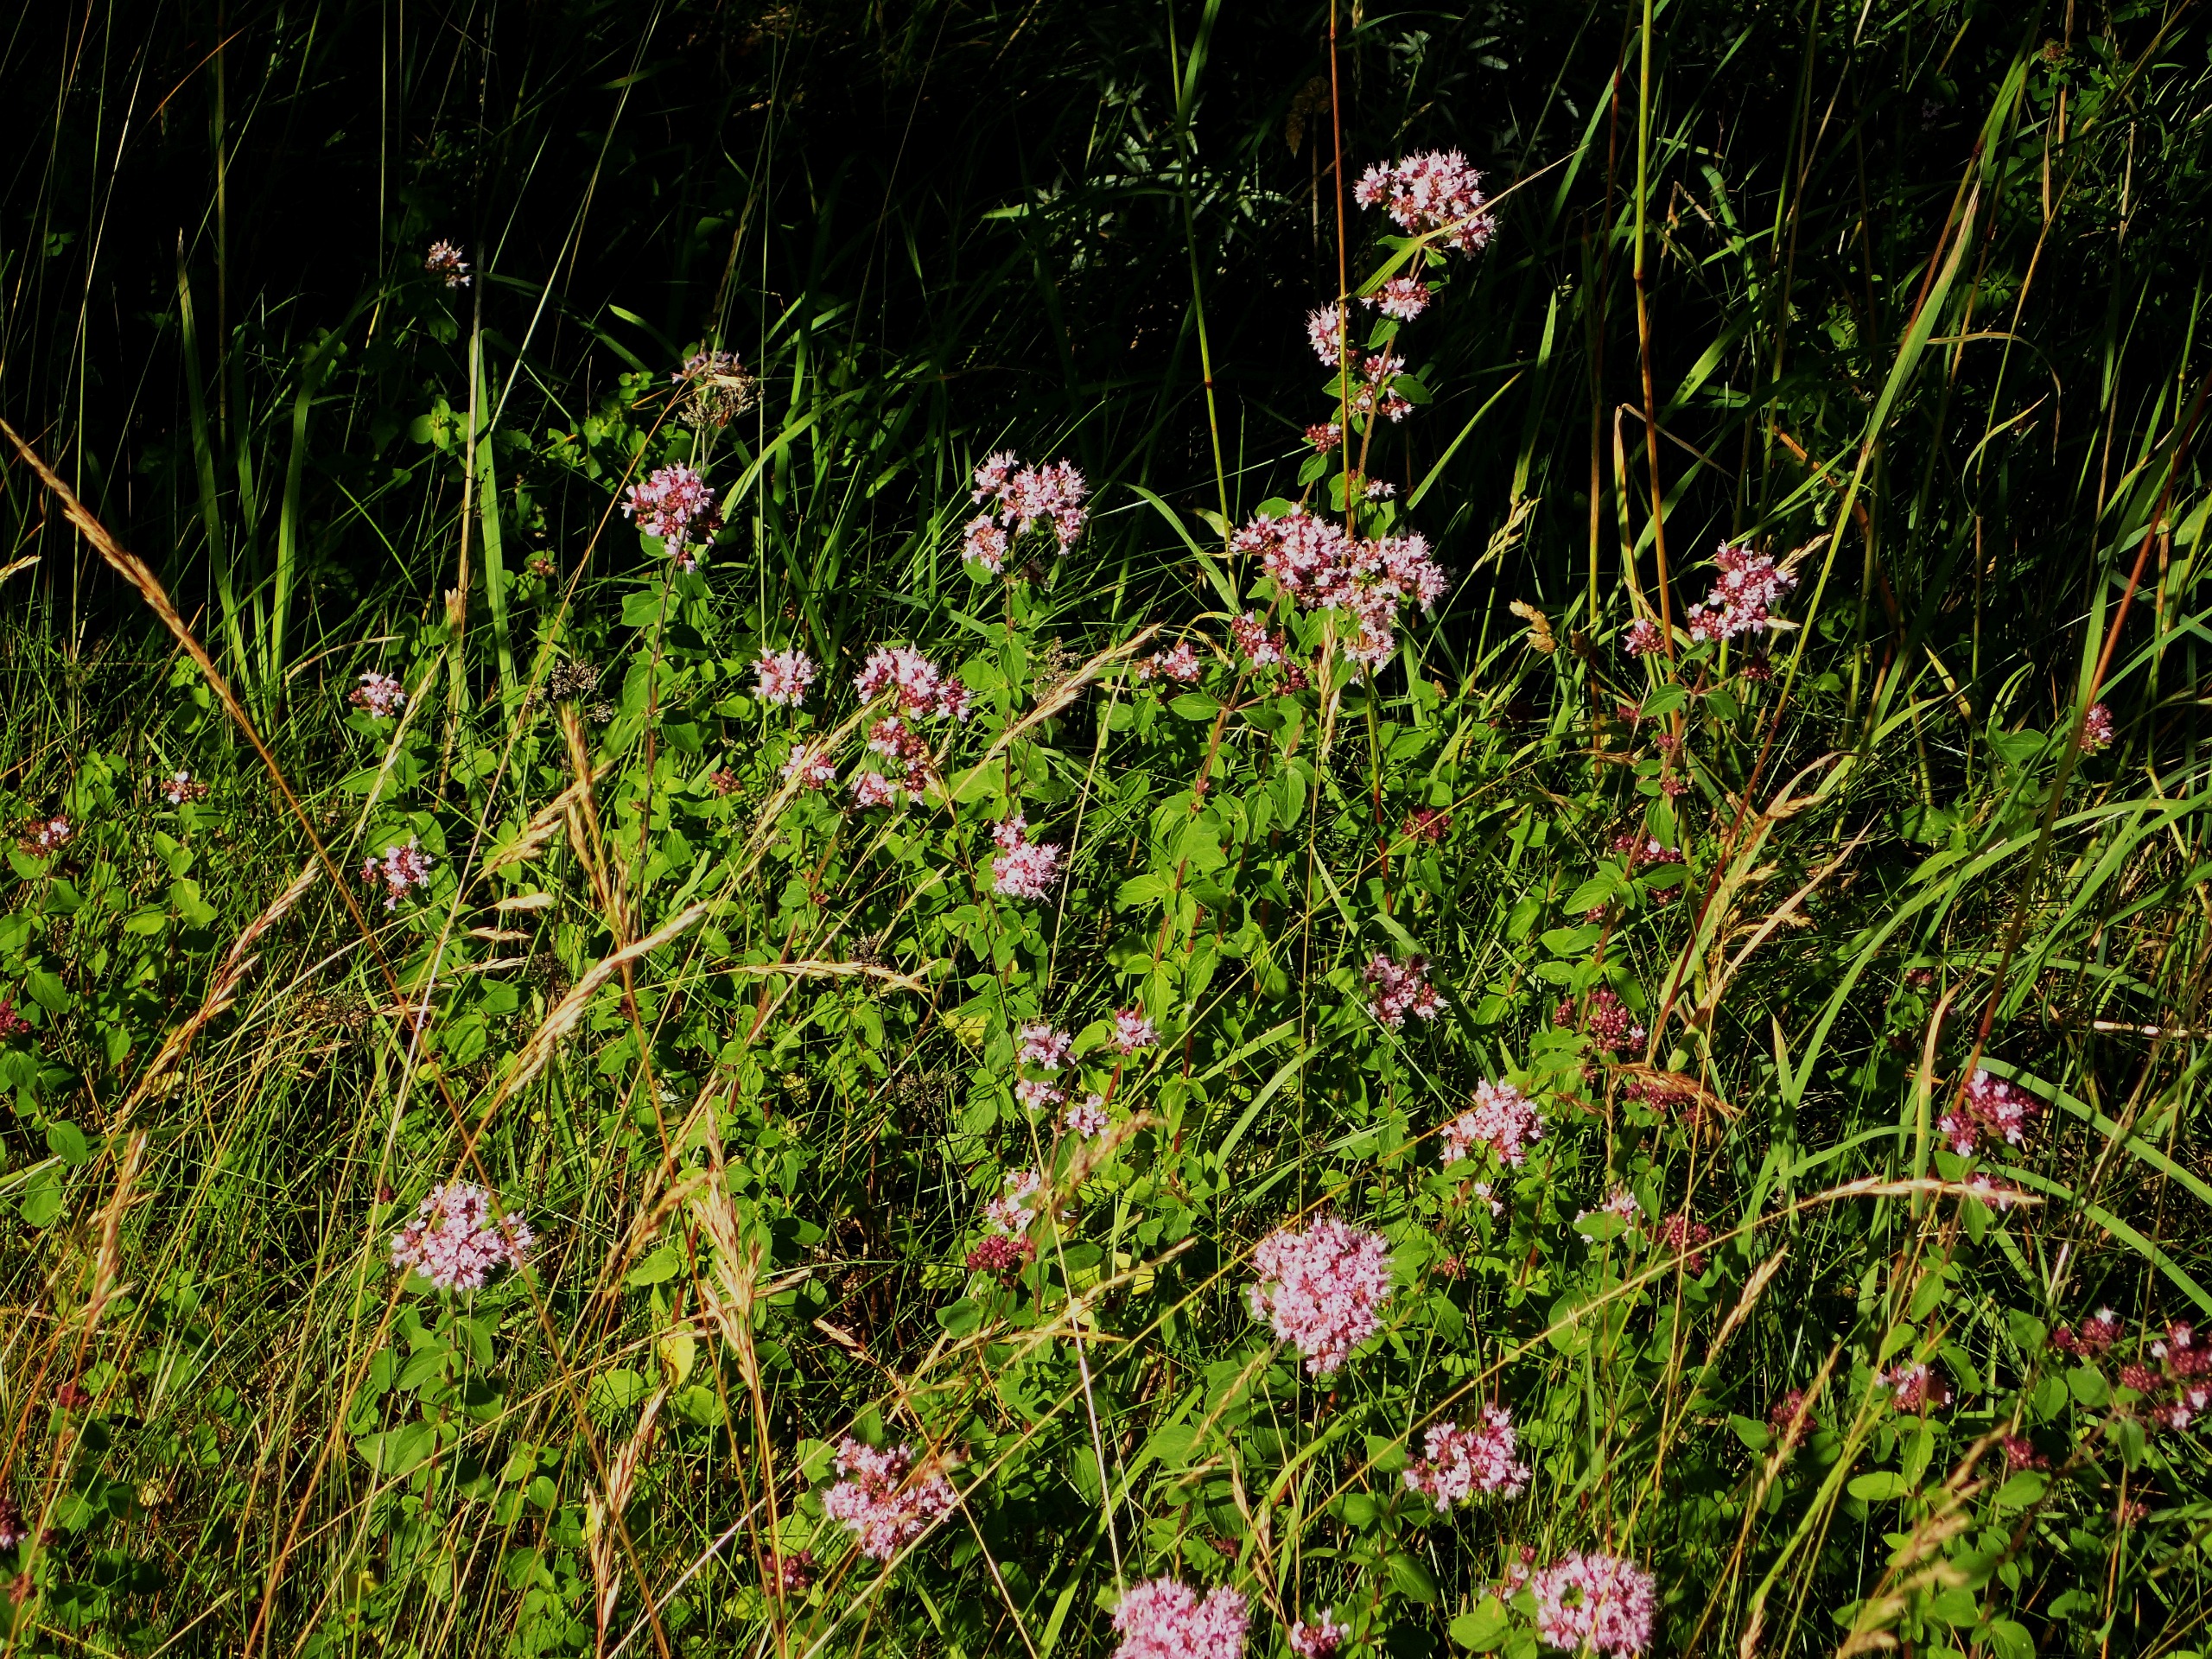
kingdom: Plantae
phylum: Tracheophyta
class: Magnoliopsida
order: Lamiales
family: Lamiaceae
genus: Origanum
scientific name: Origanum vulgare
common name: Merian
